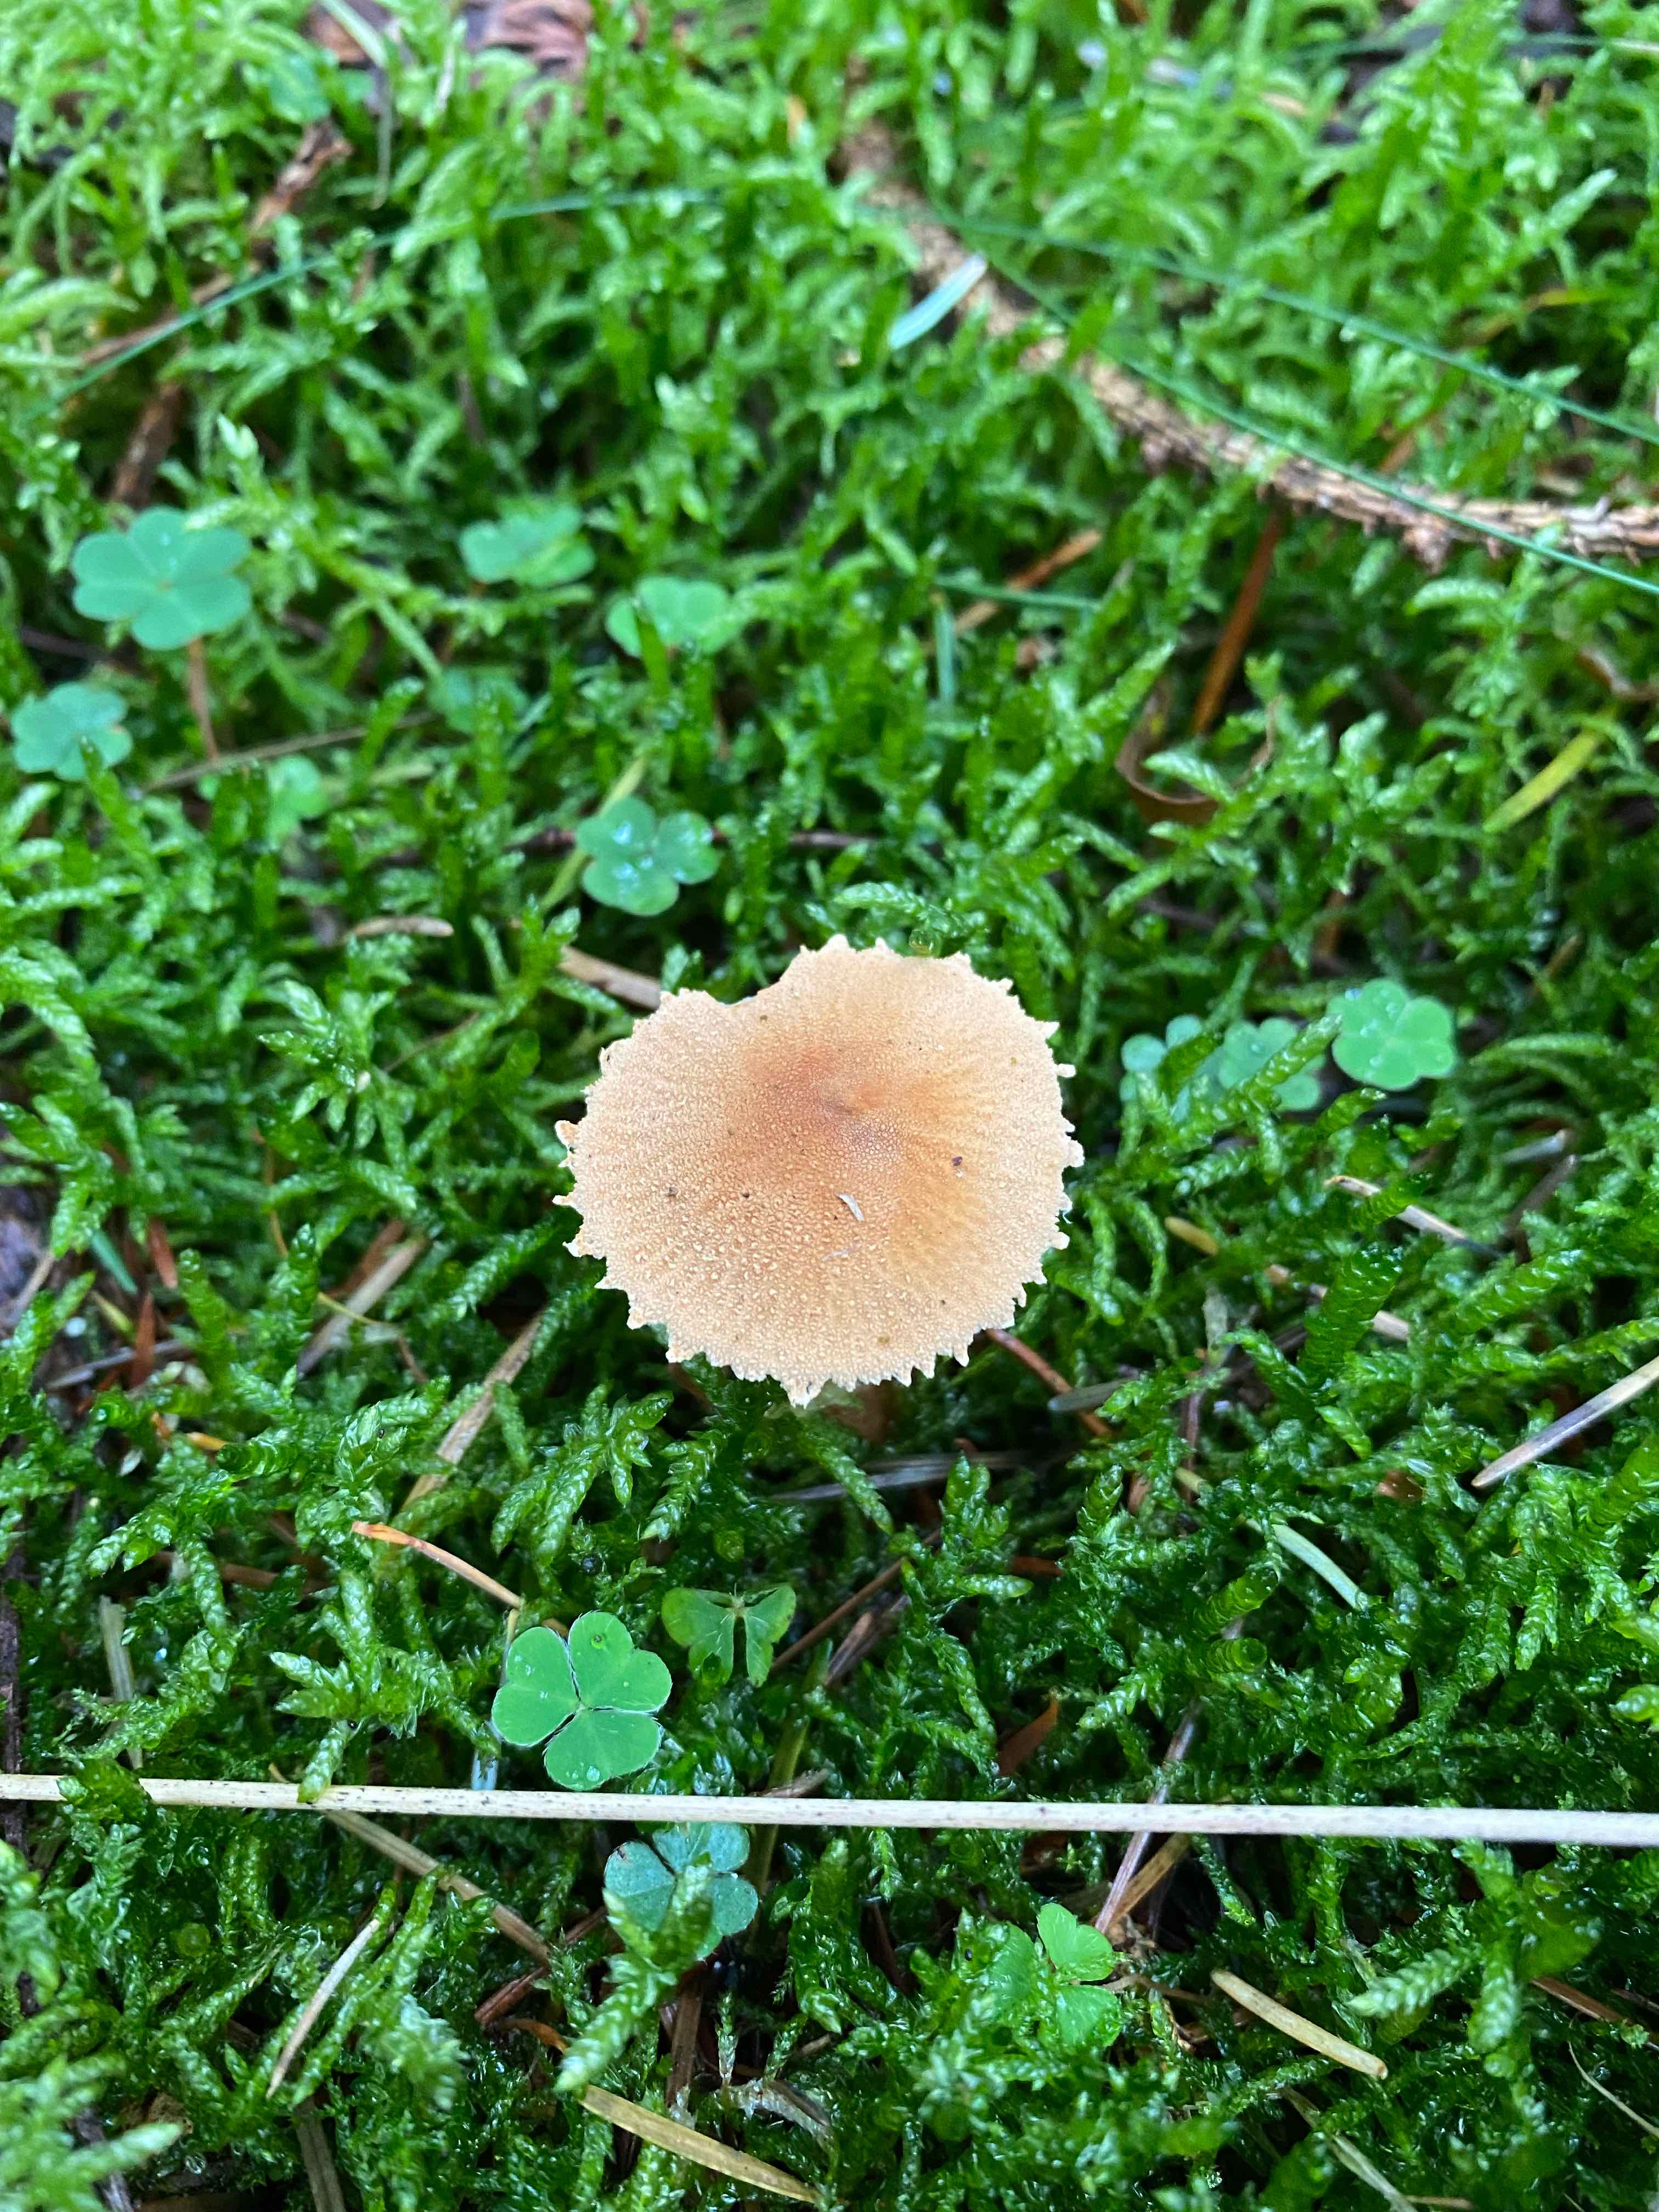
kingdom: Fungi
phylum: Basidiomycota
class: Agaricomycetes
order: Agaricales
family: Tricholomataceae
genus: Cystoderma
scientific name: Cystoderma amianthinum
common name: okkergul grynhat
